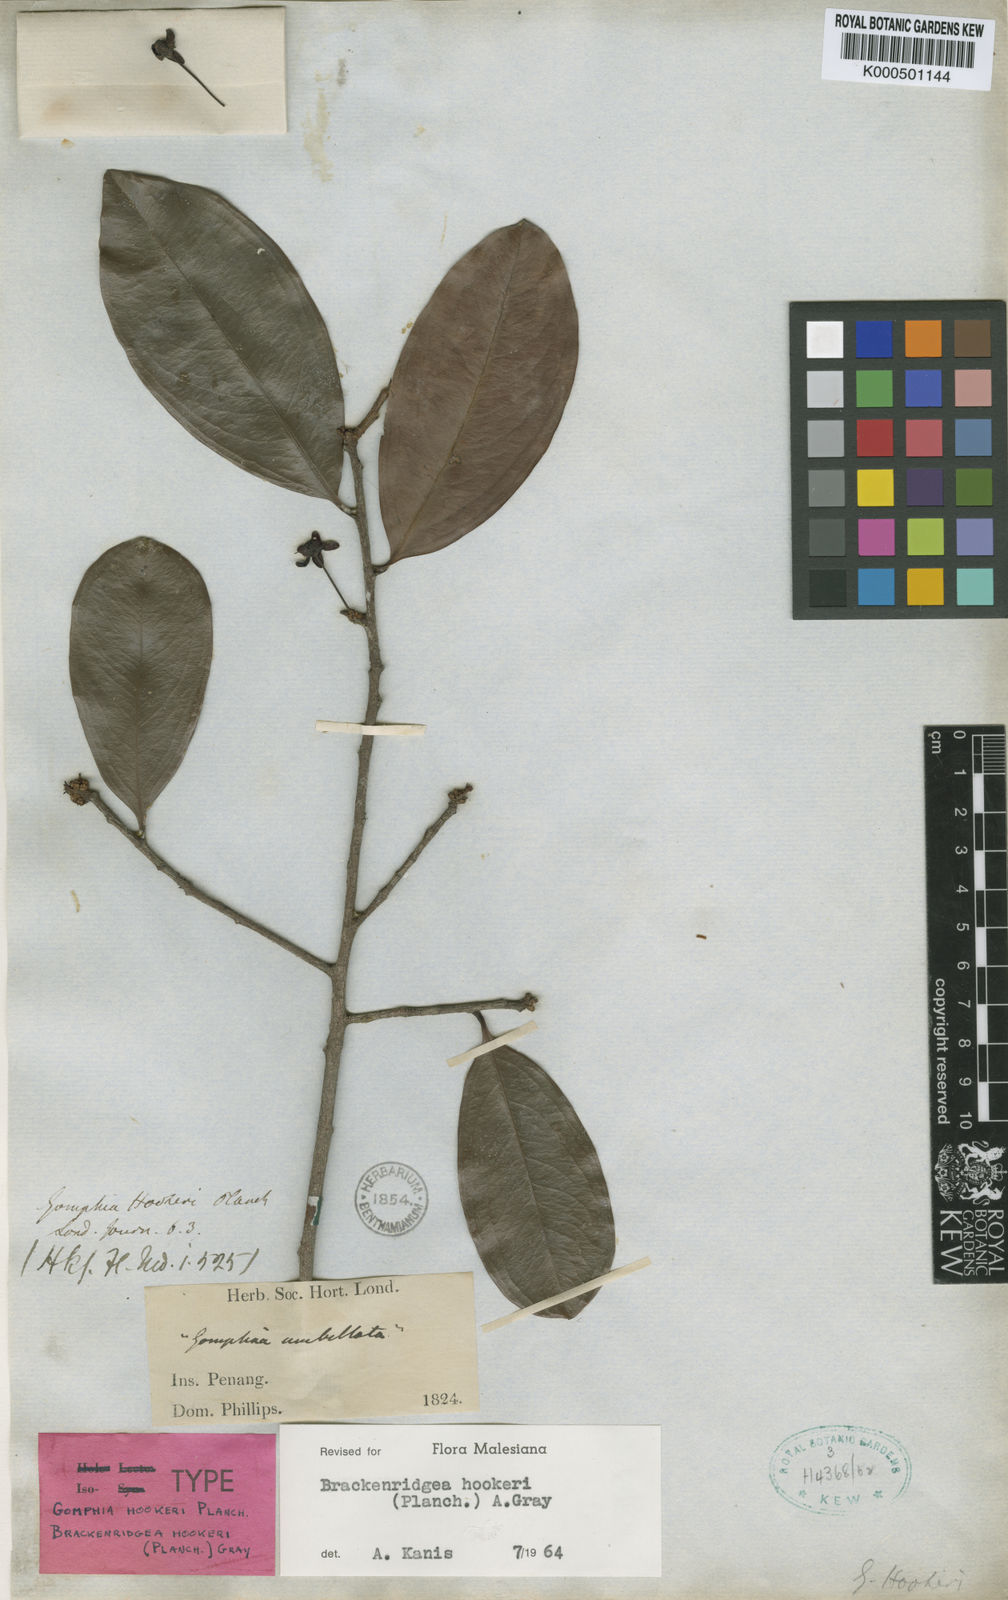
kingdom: Plantae
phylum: Tracheophyta
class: Magnoliopsida
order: Malpighiales
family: Ochnaceae
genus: Brackenridgea
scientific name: Brackenridgea elegantissima
